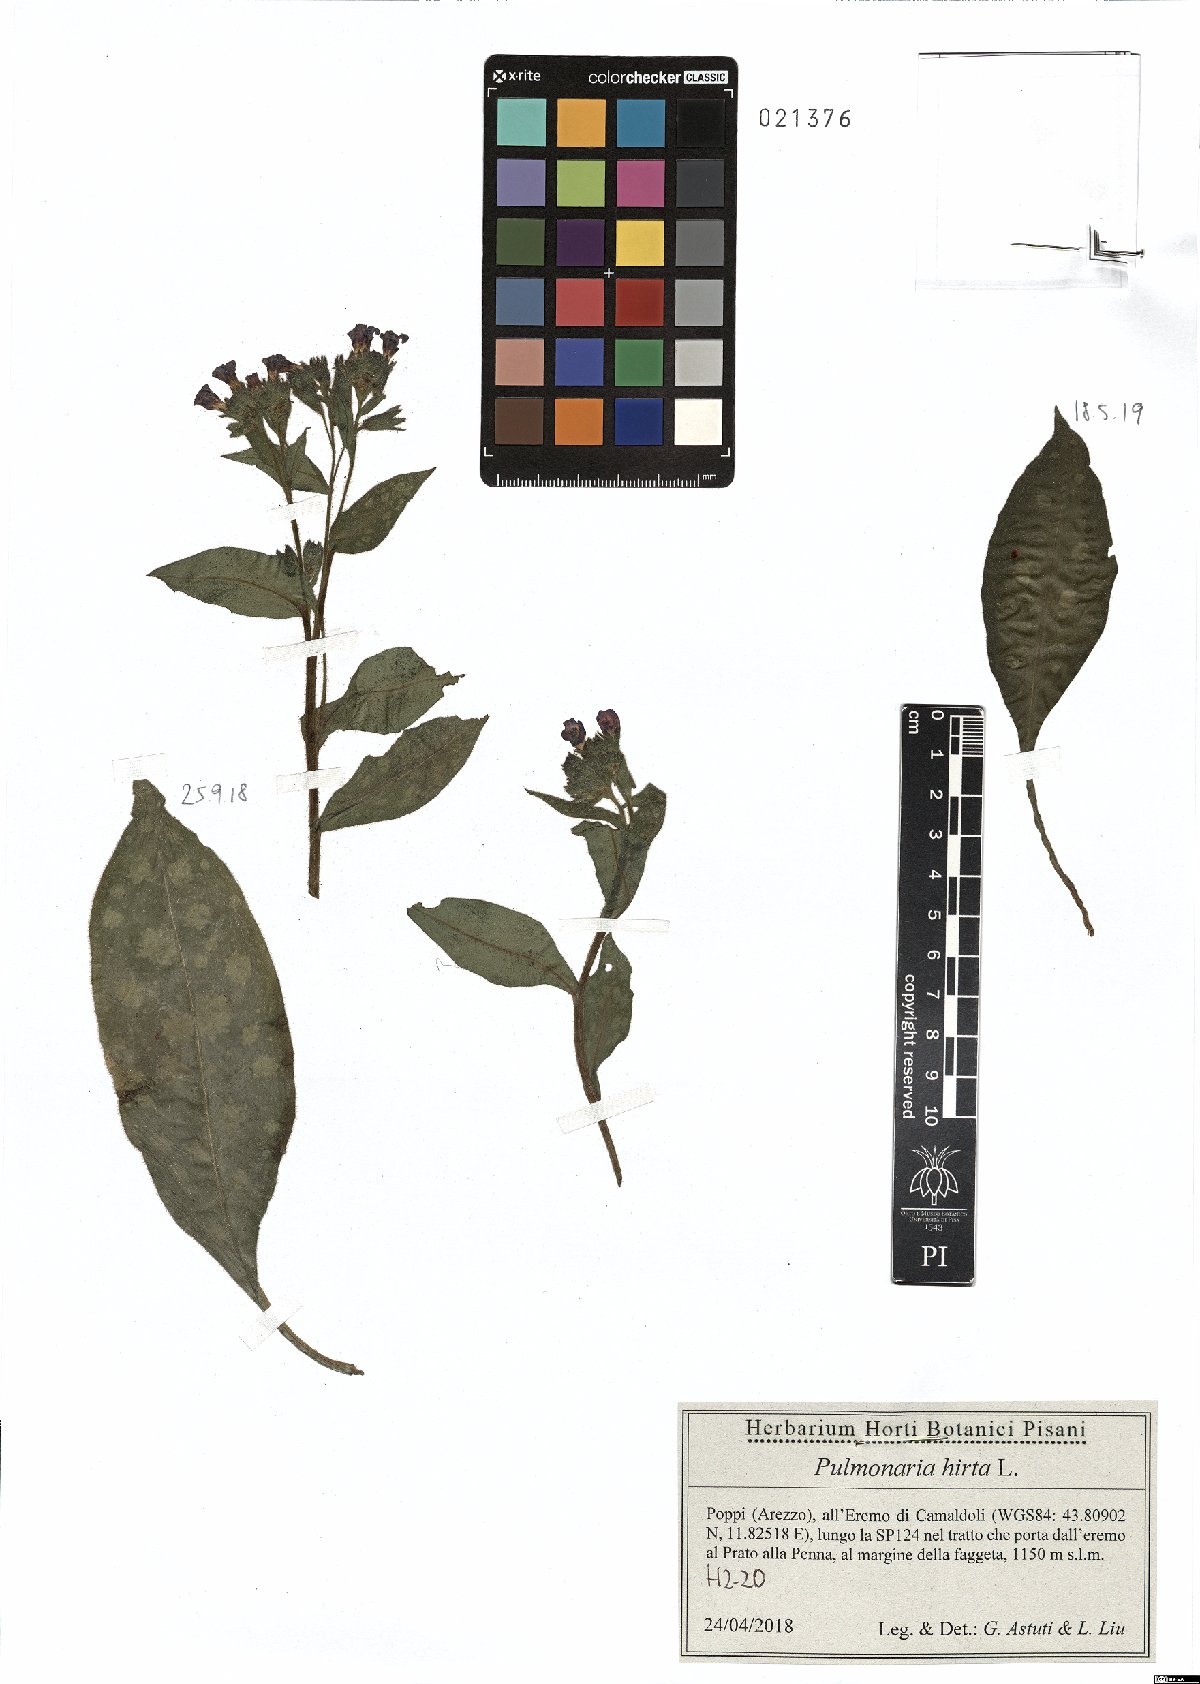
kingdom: Plantae
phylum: Tracheophyta
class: Magnoliopsida
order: Boraginales
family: Boraginaceae
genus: Pulmonaria
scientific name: Pulmonaria hirta
